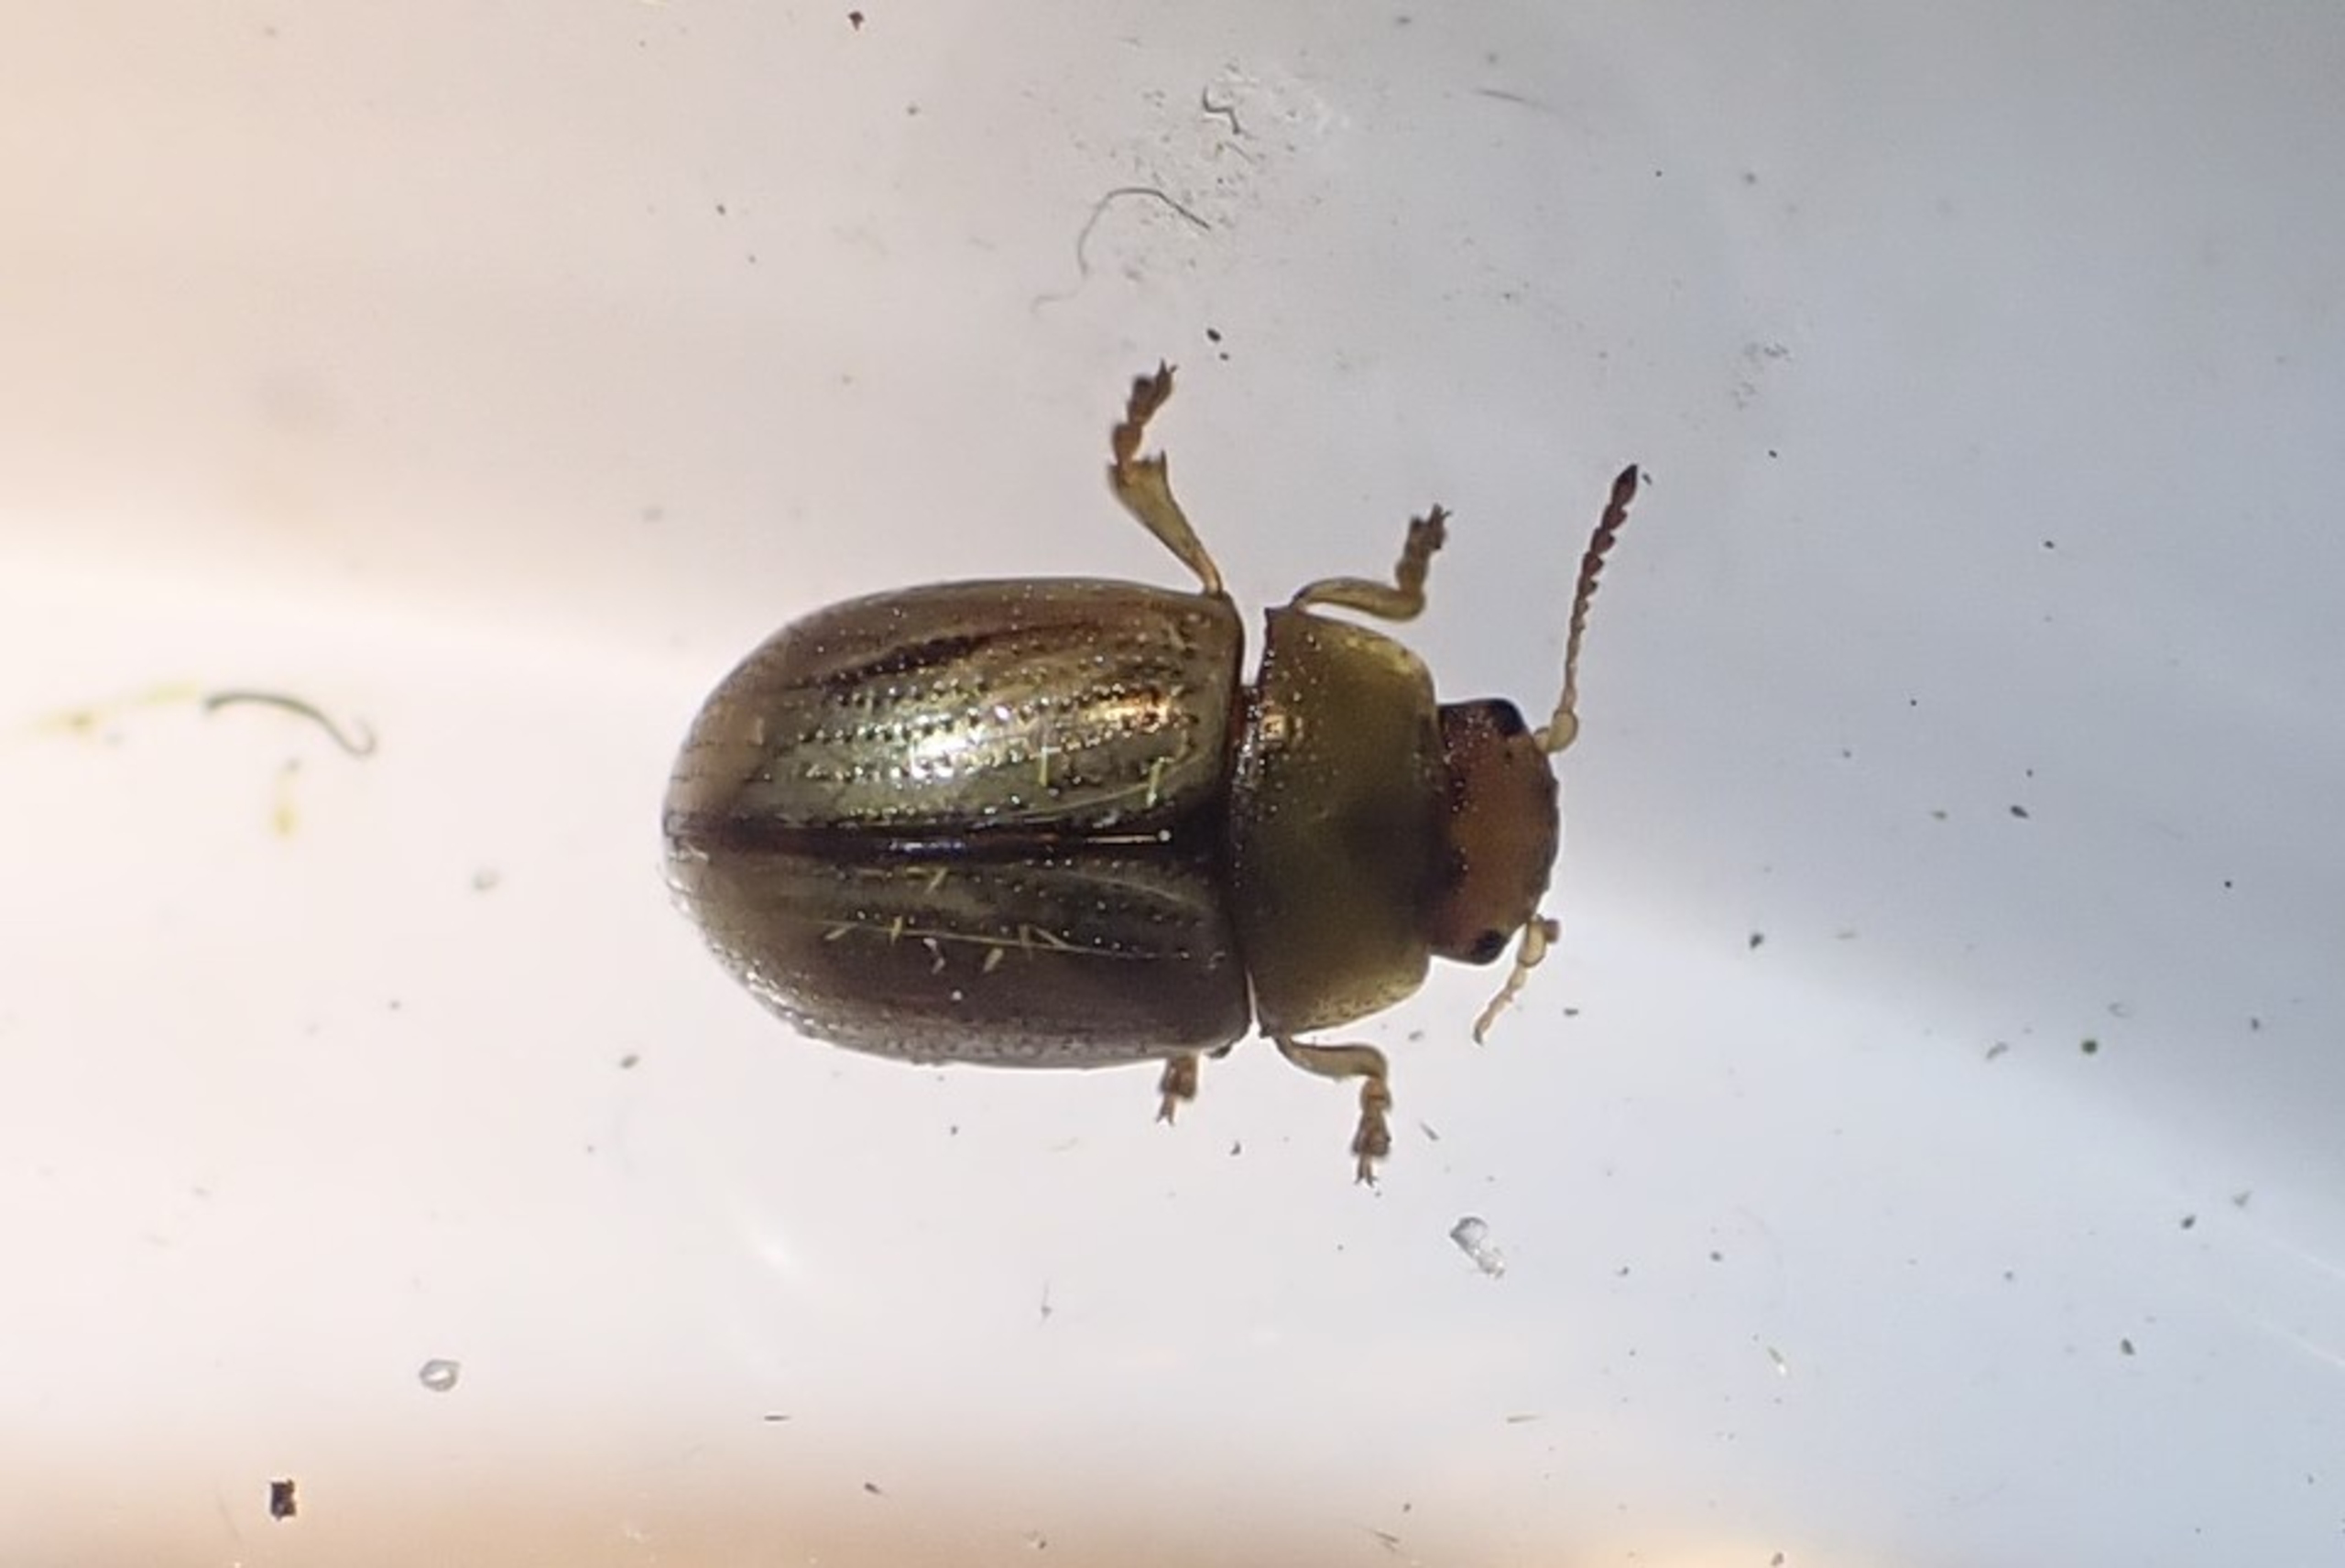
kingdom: Animalia
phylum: Arthropoda
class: Insecta
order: Coleoptera
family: Chrysomelidae
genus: Gonioctena
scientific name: Gonioctena olivacea
